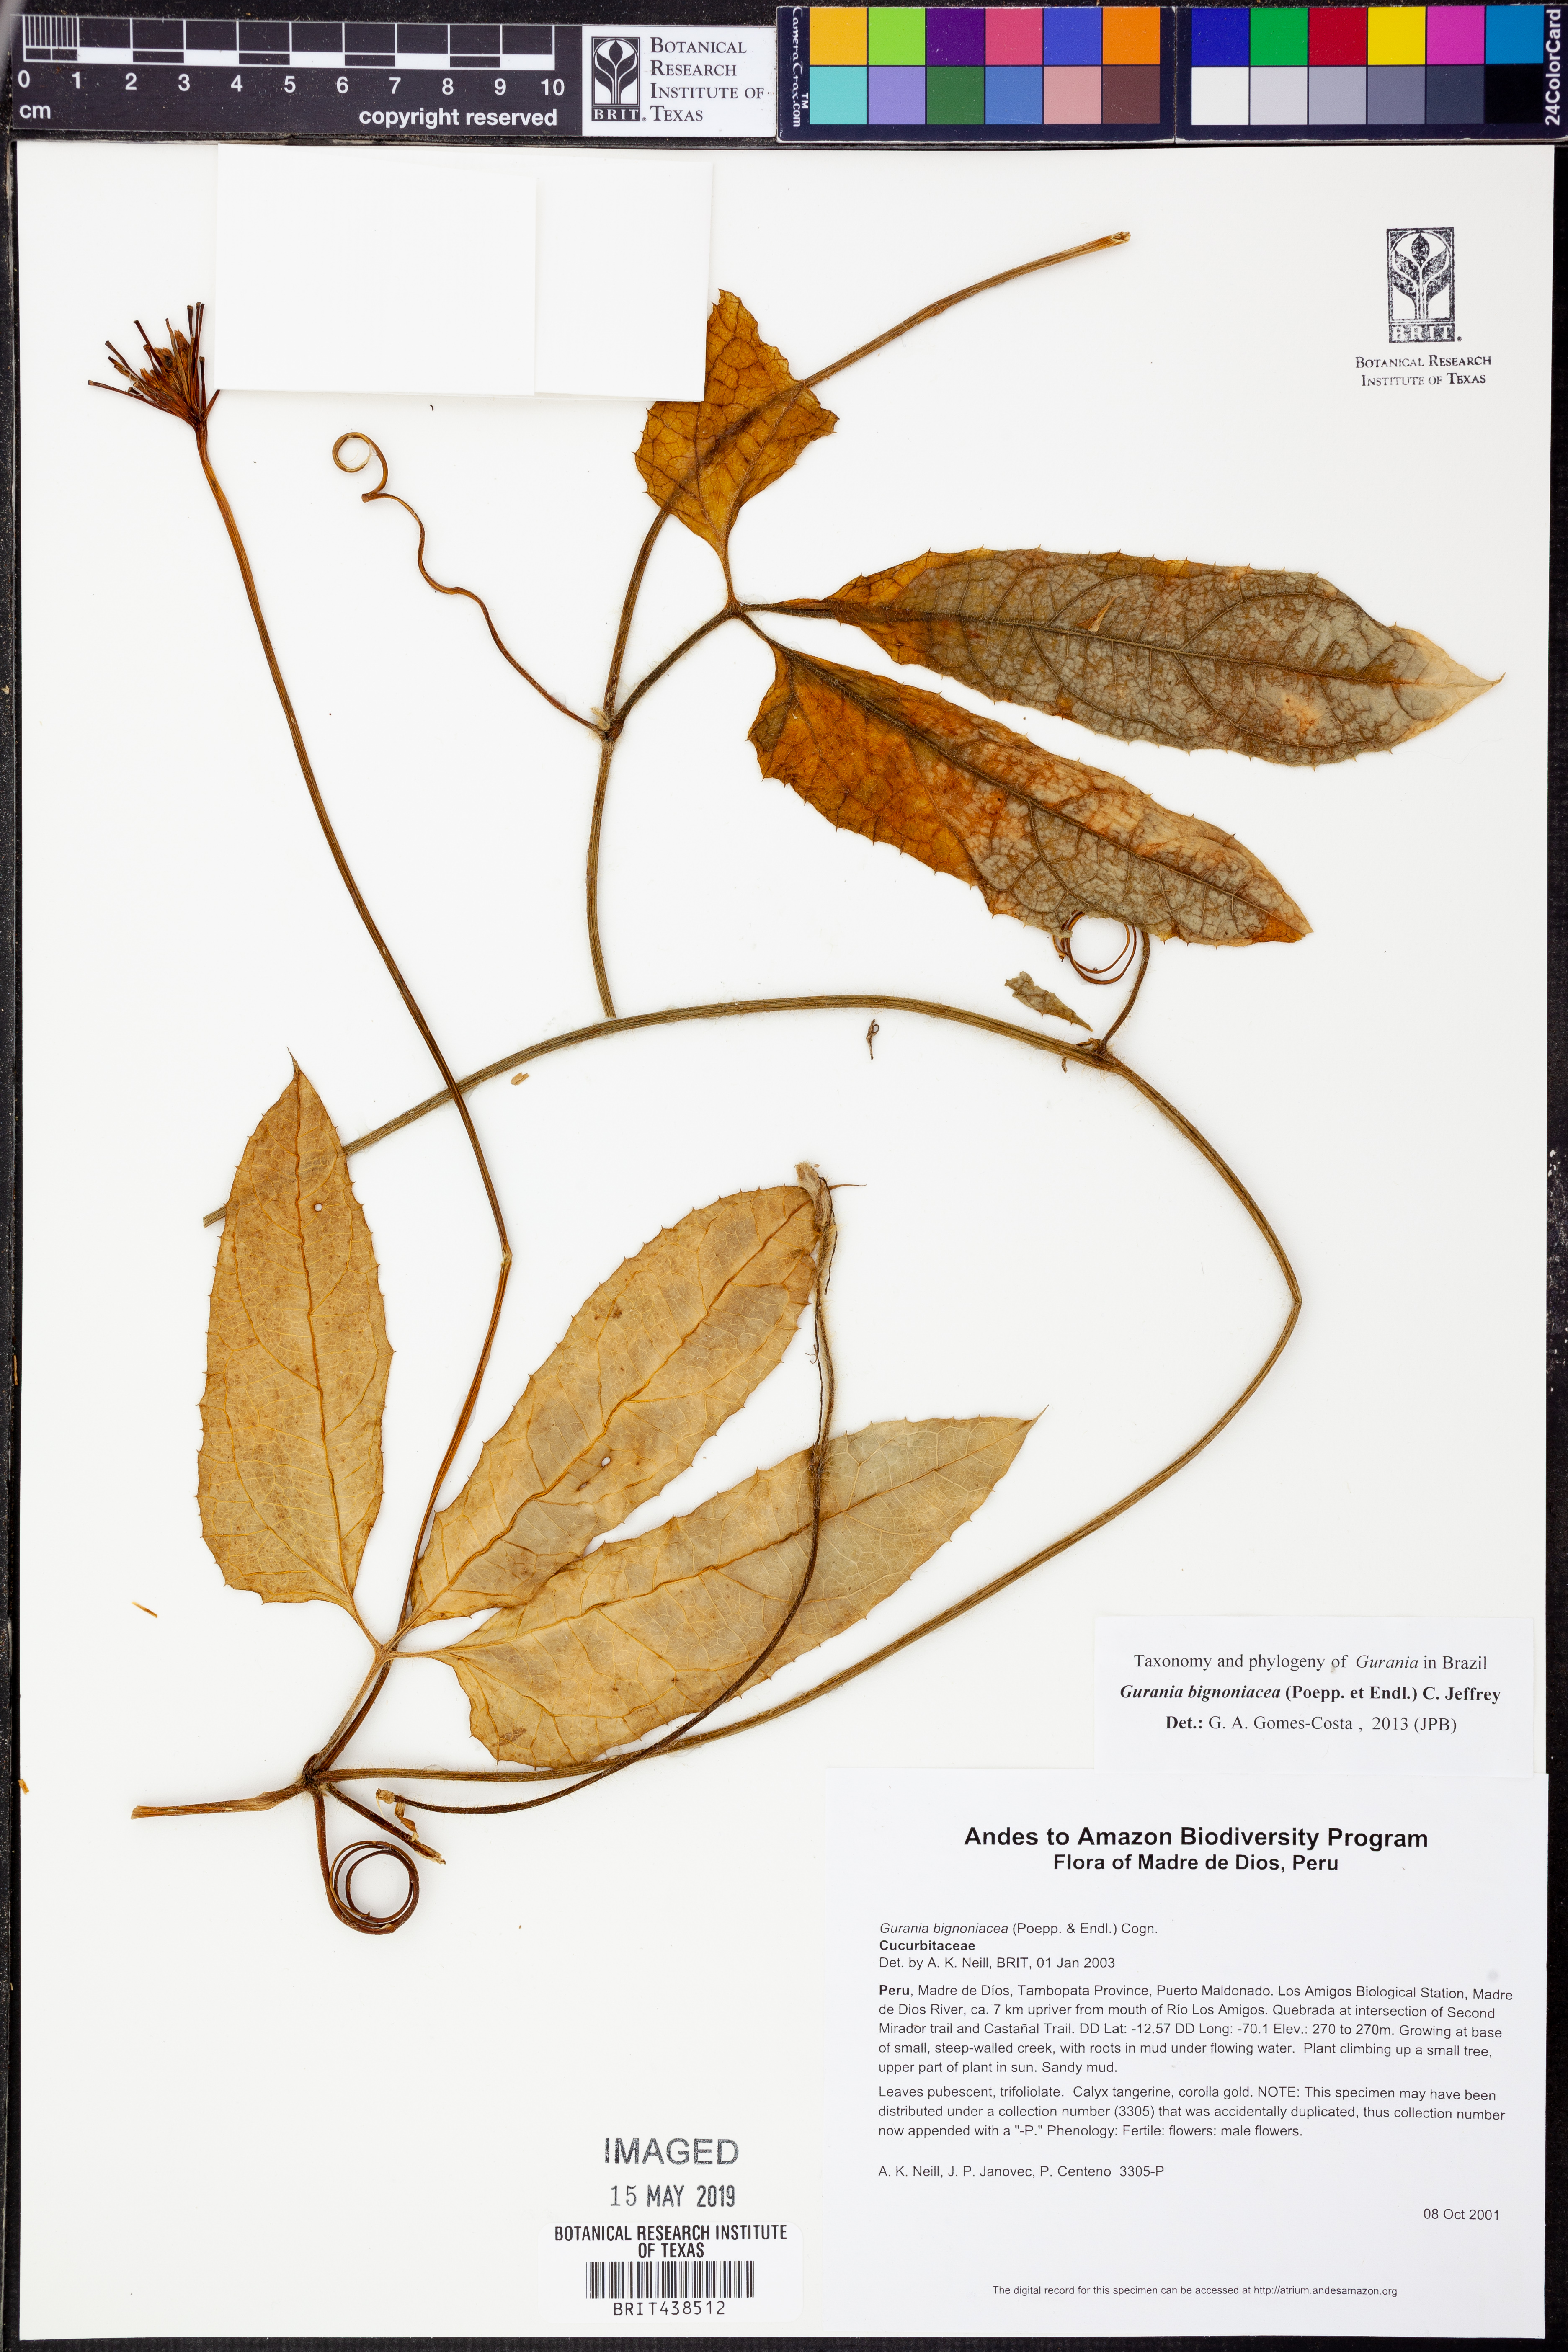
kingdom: Plantae
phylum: Tracheophyta
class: Magnoliopsida
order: Cucurbitales
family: Cucurbitaceae
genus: Gurania
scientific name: Gurania
